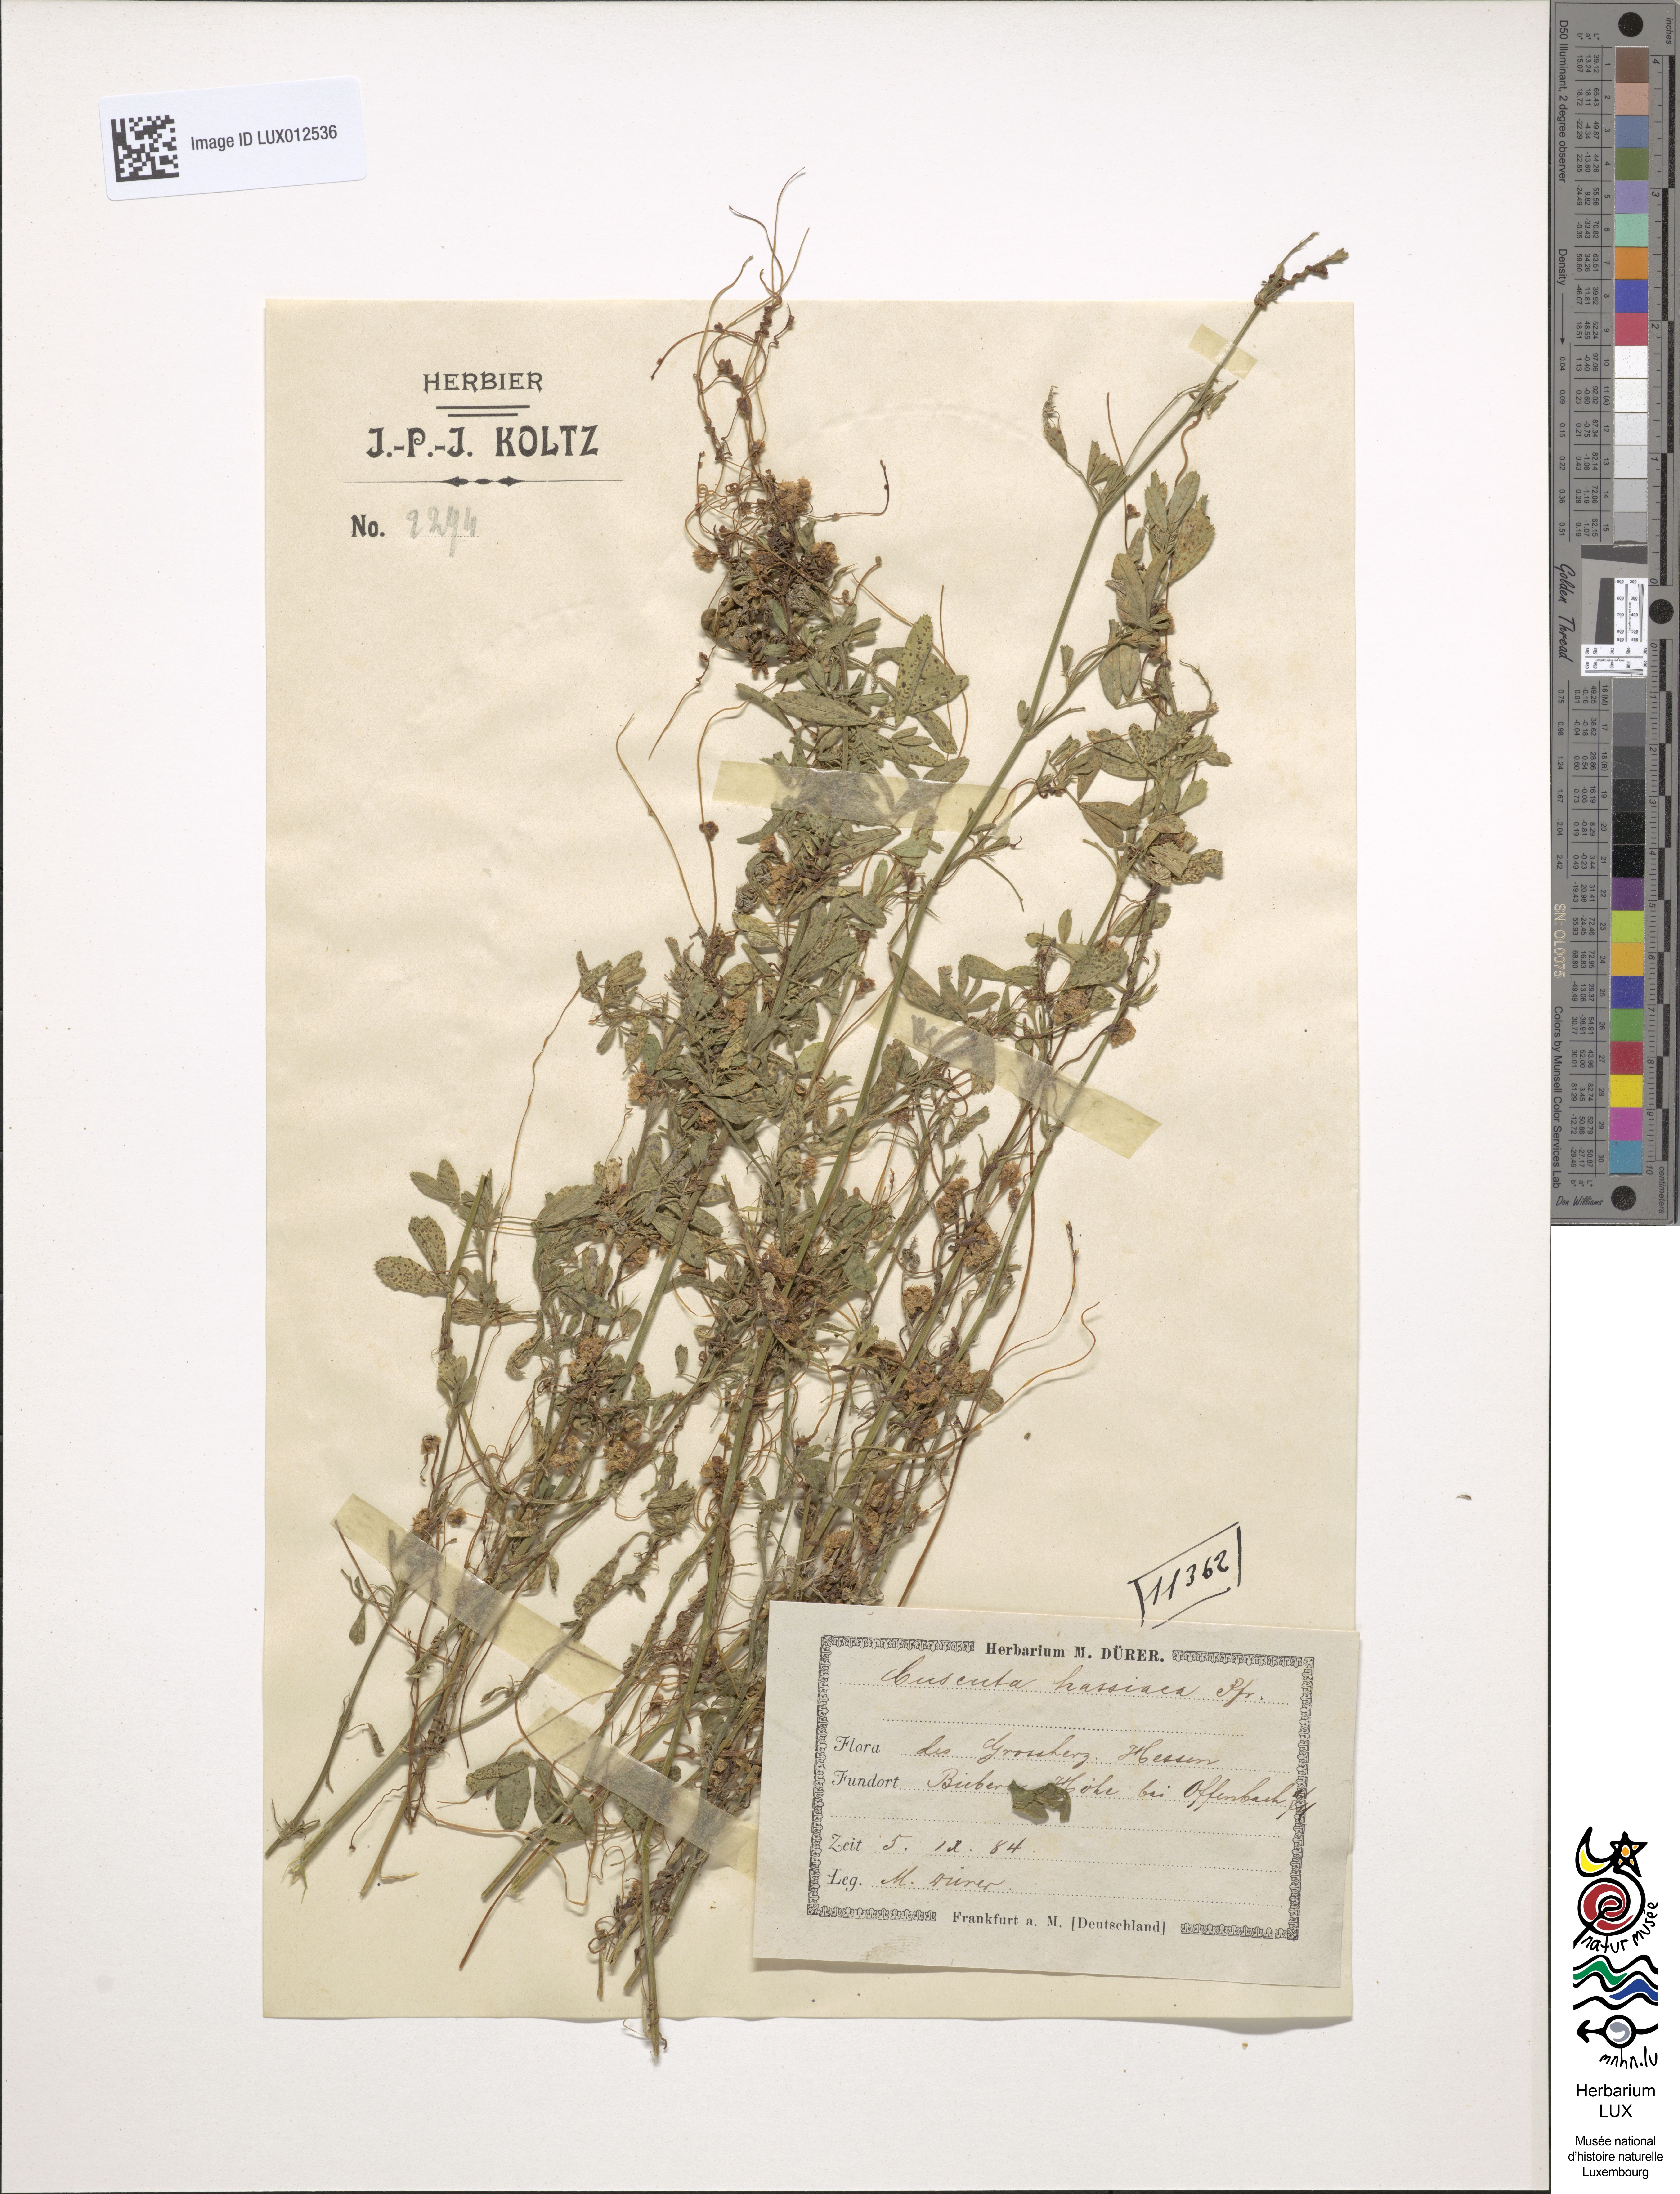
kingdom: Plantae
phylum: Tracheophyta
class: Magnoliopsida
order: Solanales
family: Convolvulaceae
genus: Cuscuta
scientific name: Cuscuta suaveolens
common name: Fringed dodder
